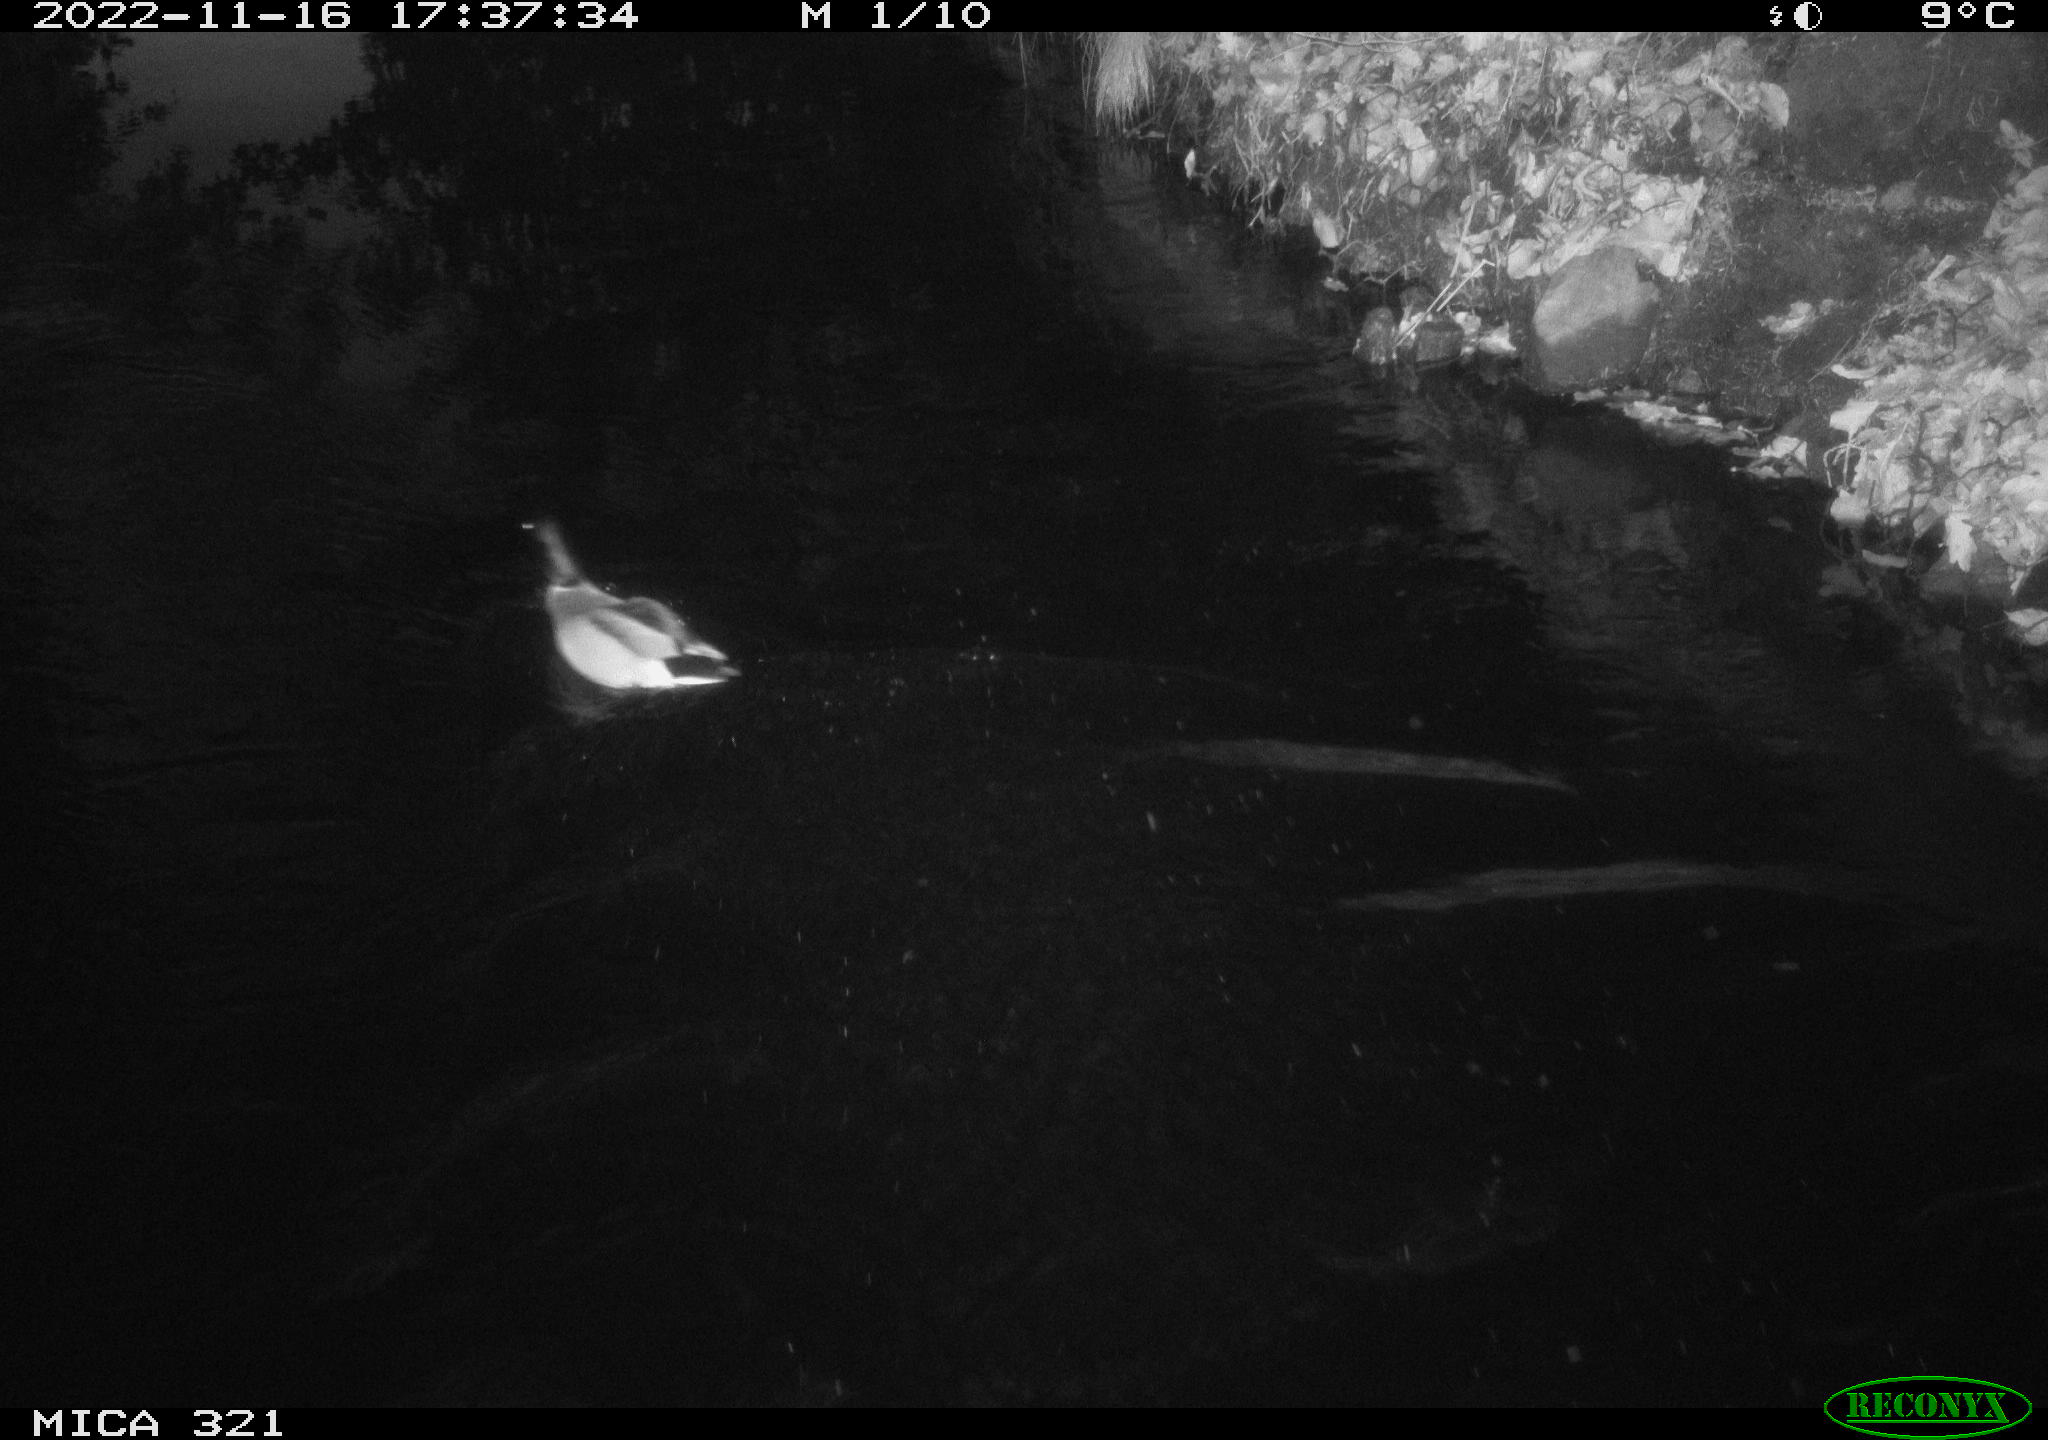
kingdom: Animalia
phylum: Chordata
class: Aves
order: Anseriformes
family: Anatidae
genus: Anas
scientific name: Anas
